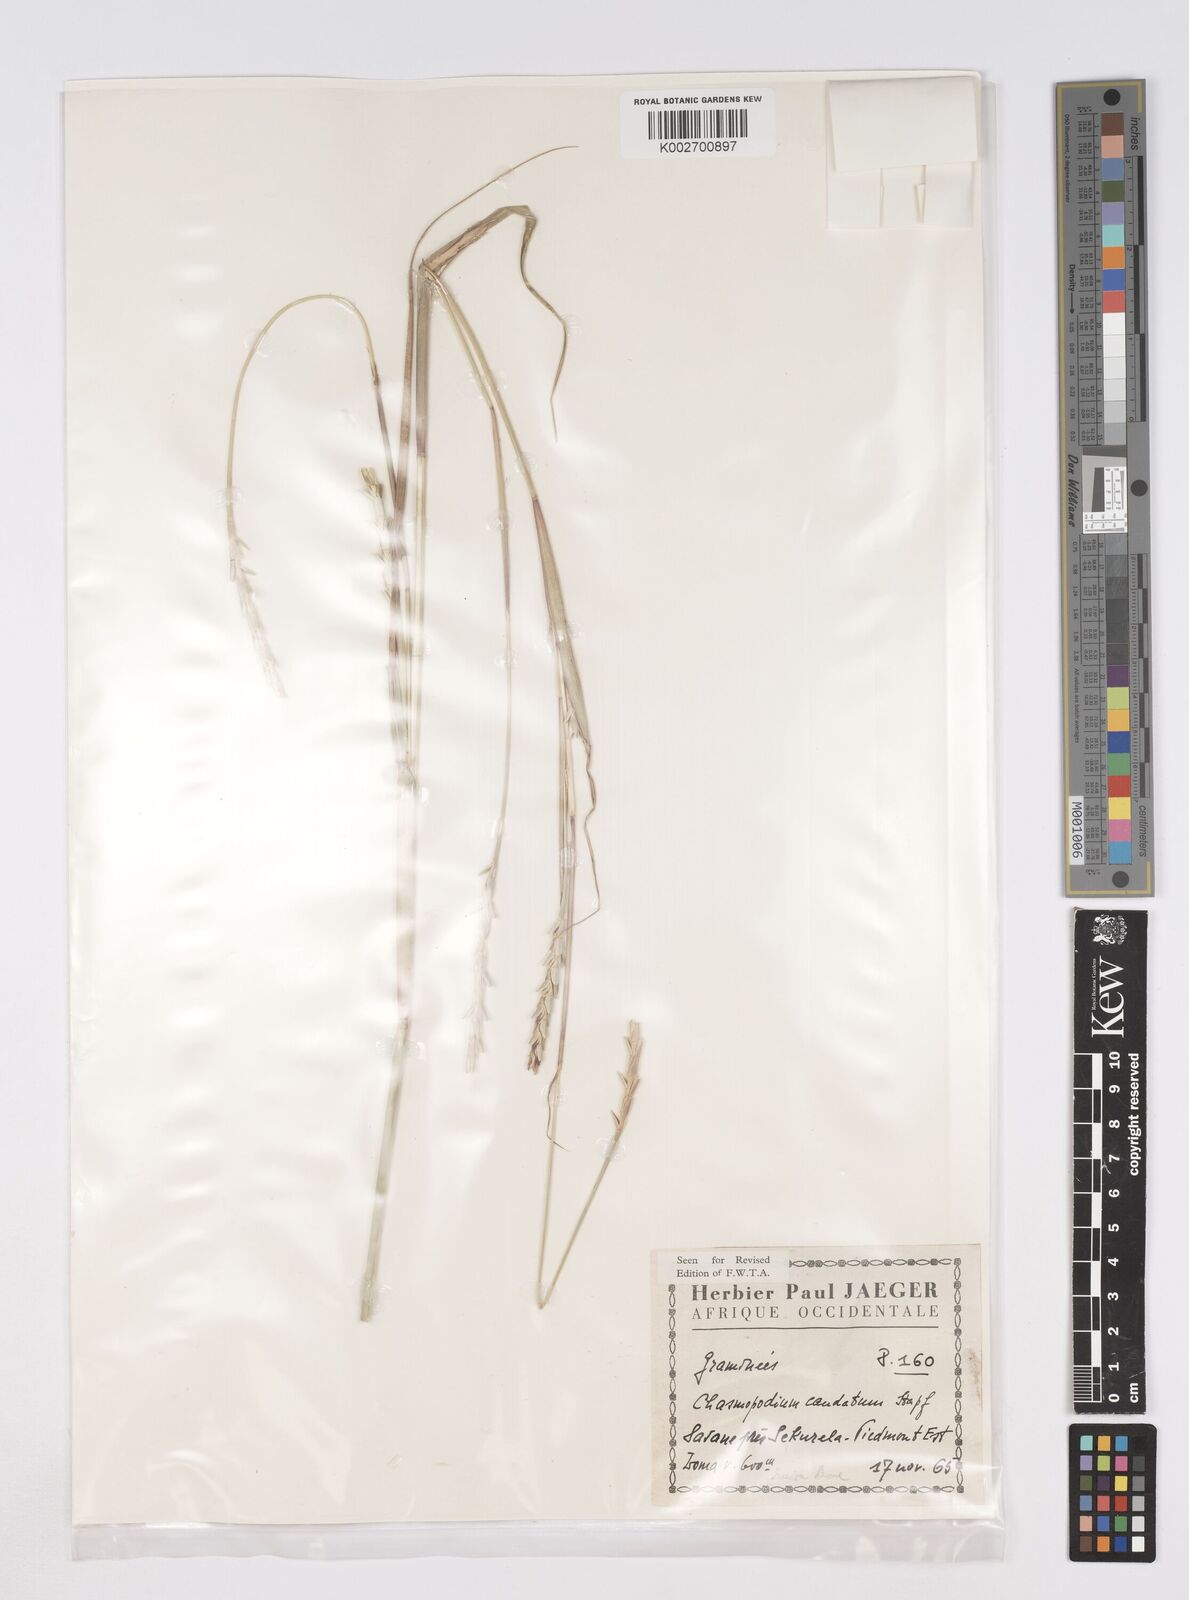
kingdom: Plantae
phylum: Tracheophyta
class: Liliopsida
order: Poales
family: Poaceae
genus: Chasmopodium
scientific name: Chasmopodium caudatum
